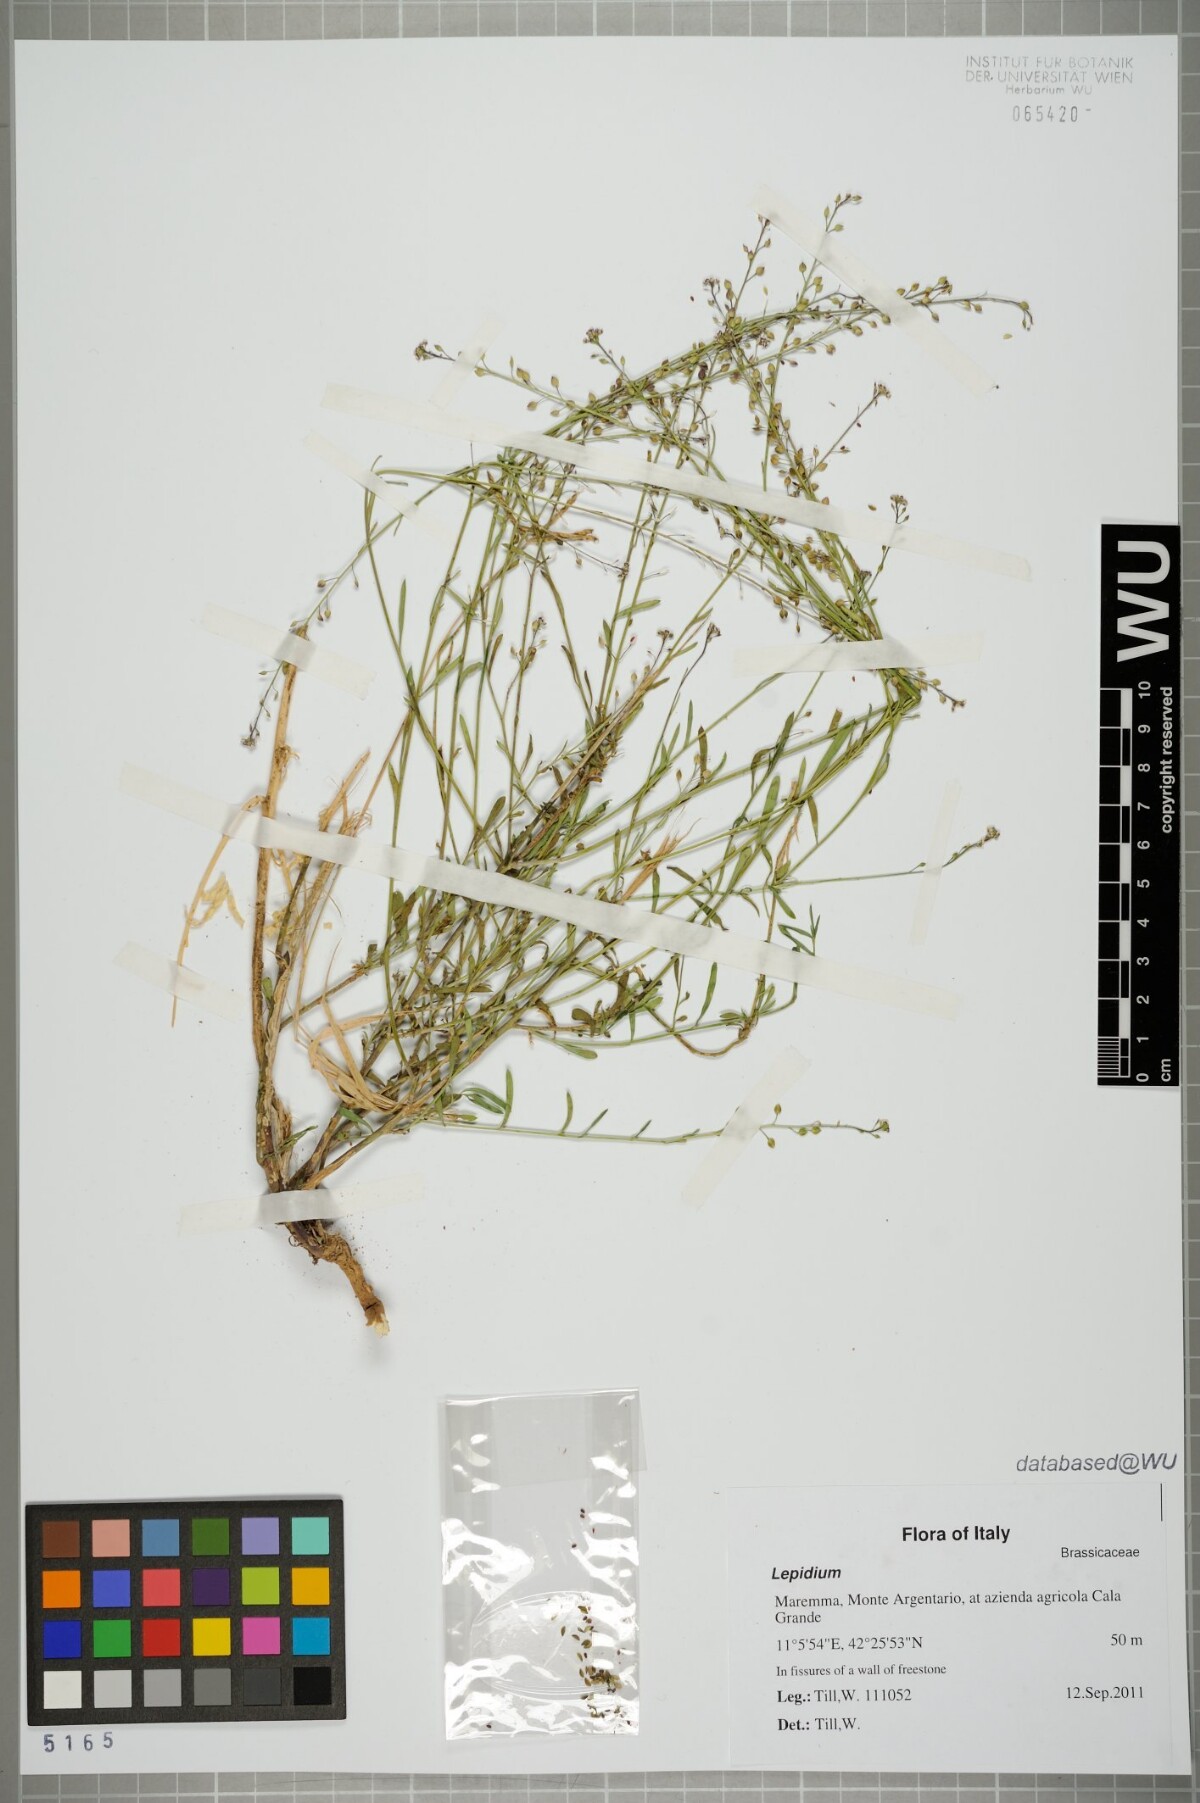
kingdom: Plantae
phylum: Tracheophyta
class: Magnoliopsida
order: Brassicales
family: Brassicaceae
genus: Lepidium
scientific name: Lepidium graminifolium
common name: Tall pepperwort
